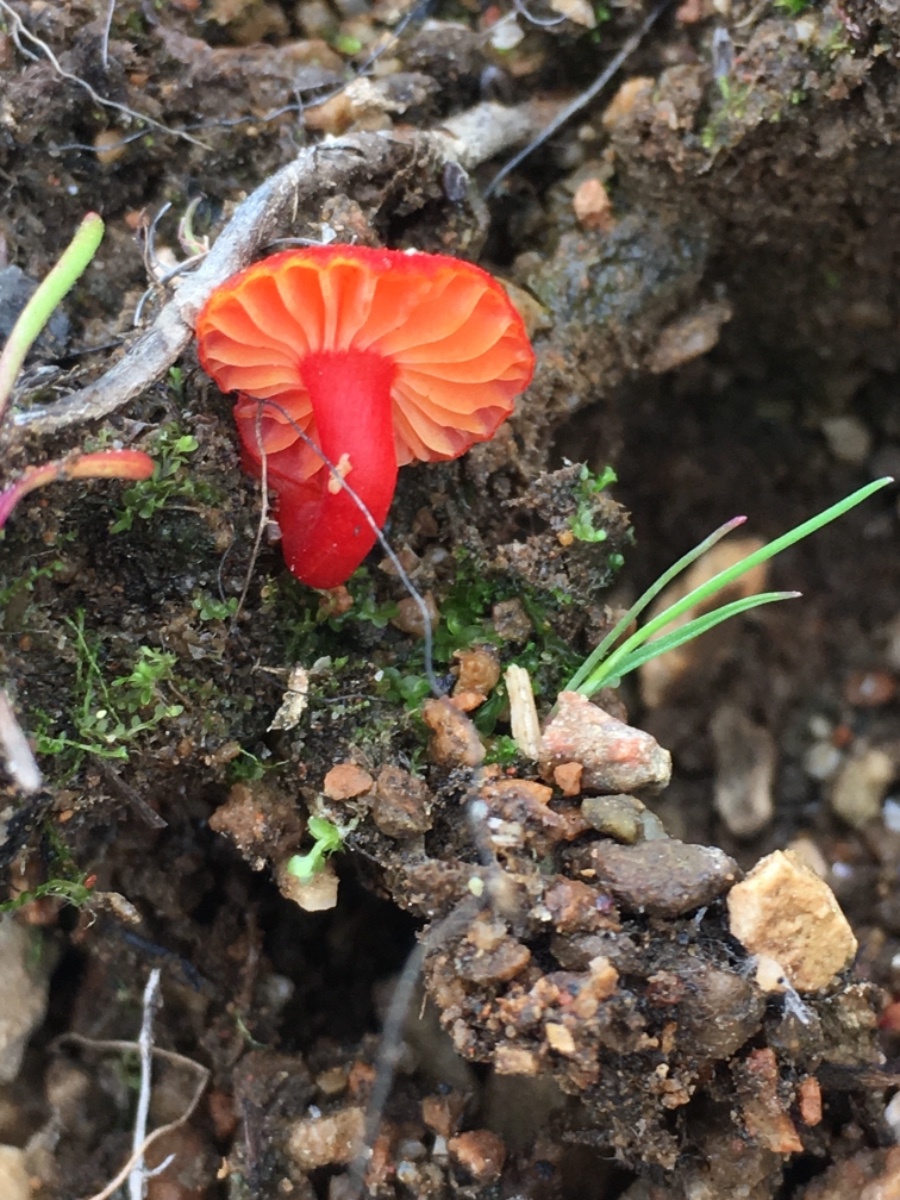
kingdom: Fungi
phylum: Basidiomycota
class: Agaricomycetes
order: Agaricales
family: Hygrophoraceae
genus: Hygrocybe
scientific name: Hygrocybe substrangulata
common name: kær-vokshat
